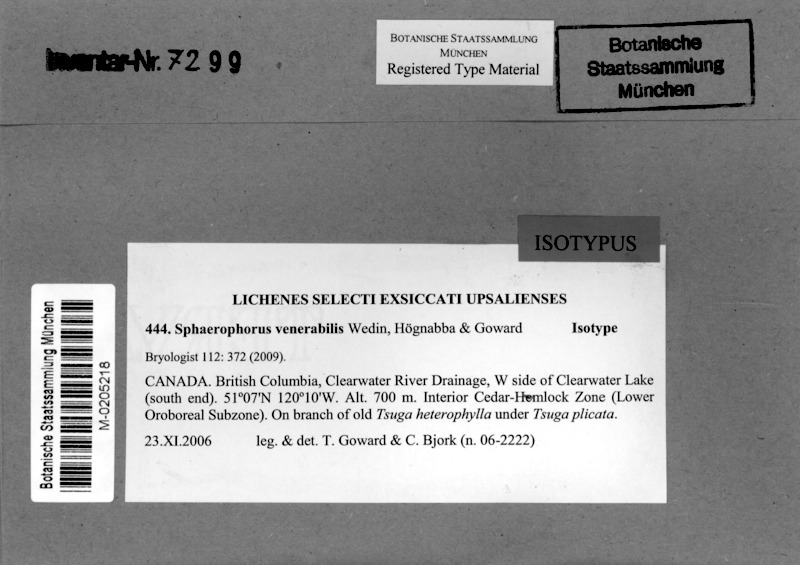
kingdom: Fungi
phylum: Ascomycota
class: Lecanoromycetes
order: Lecanorales
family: Sphaerophoraceae
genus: Sphaerophorus
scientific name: Sphaerophorus venerabilis
